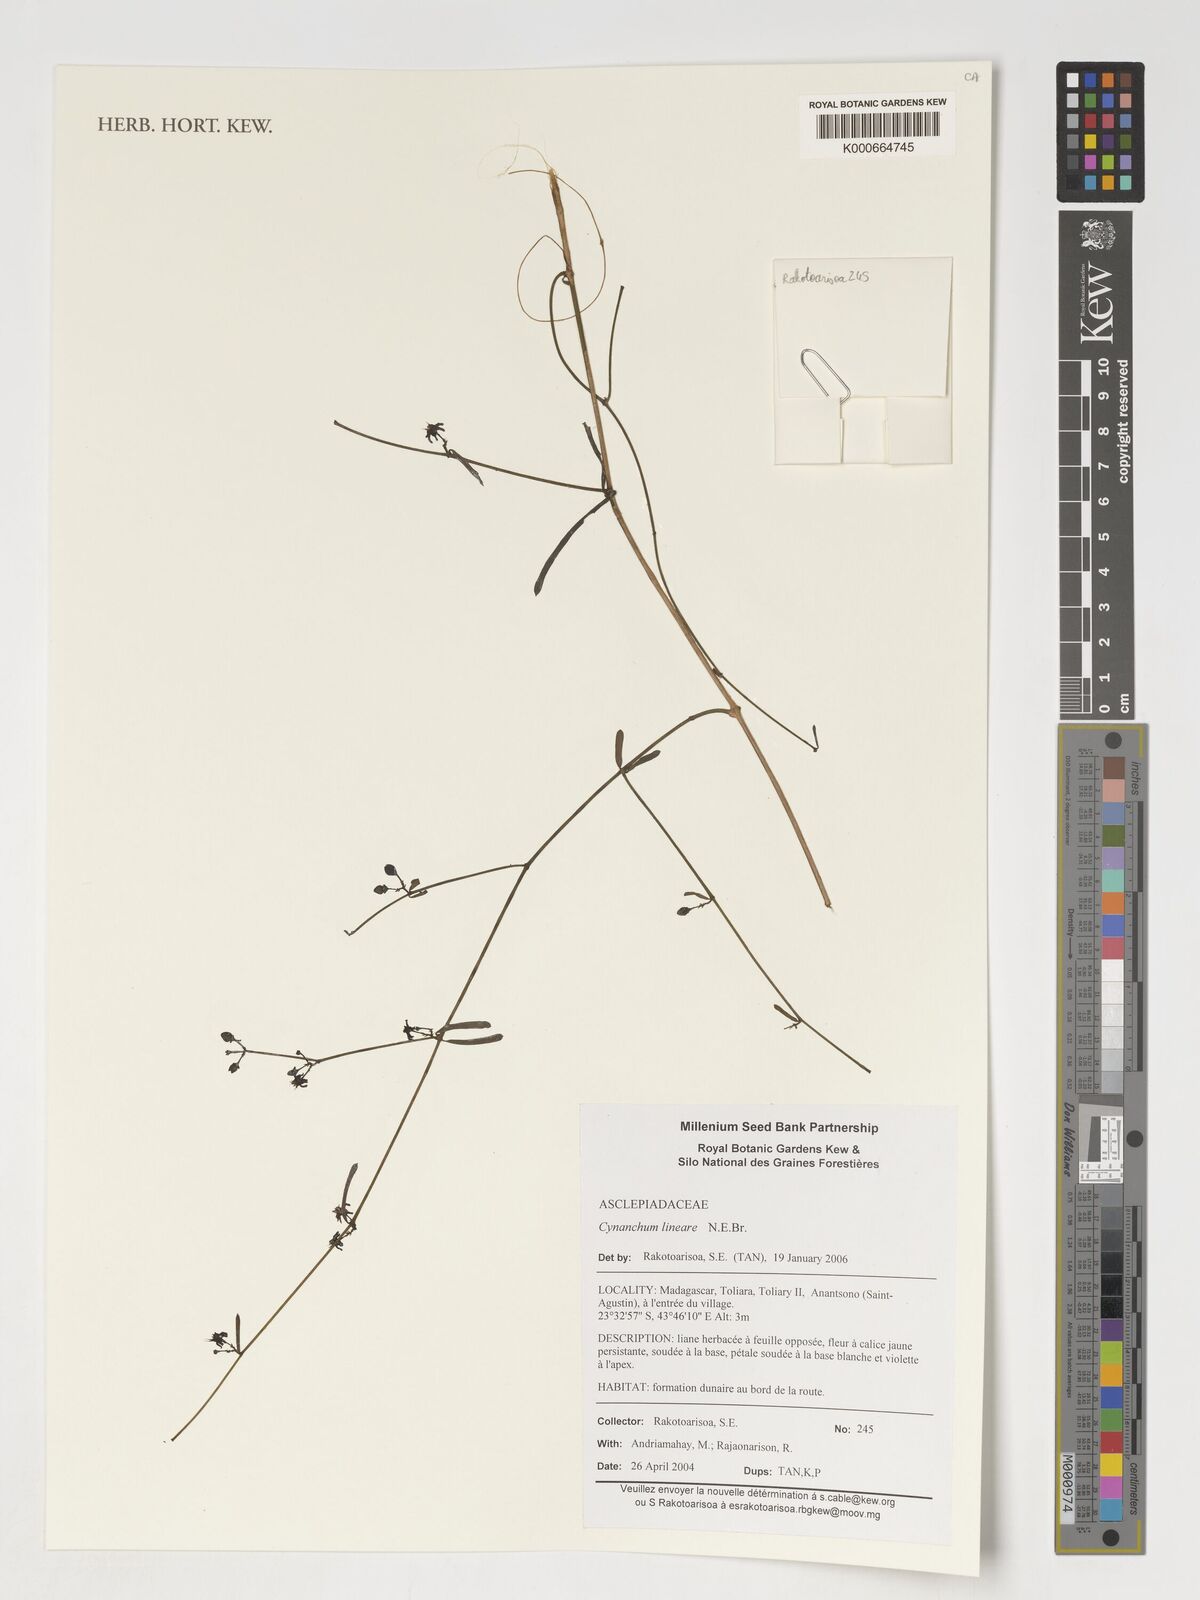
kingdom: Plantae
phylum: Tracheophyta
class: Magnoliopsida
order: Gentianales
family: Apocynaceae
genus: Cynanchum
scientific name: Cynanchum lineare
